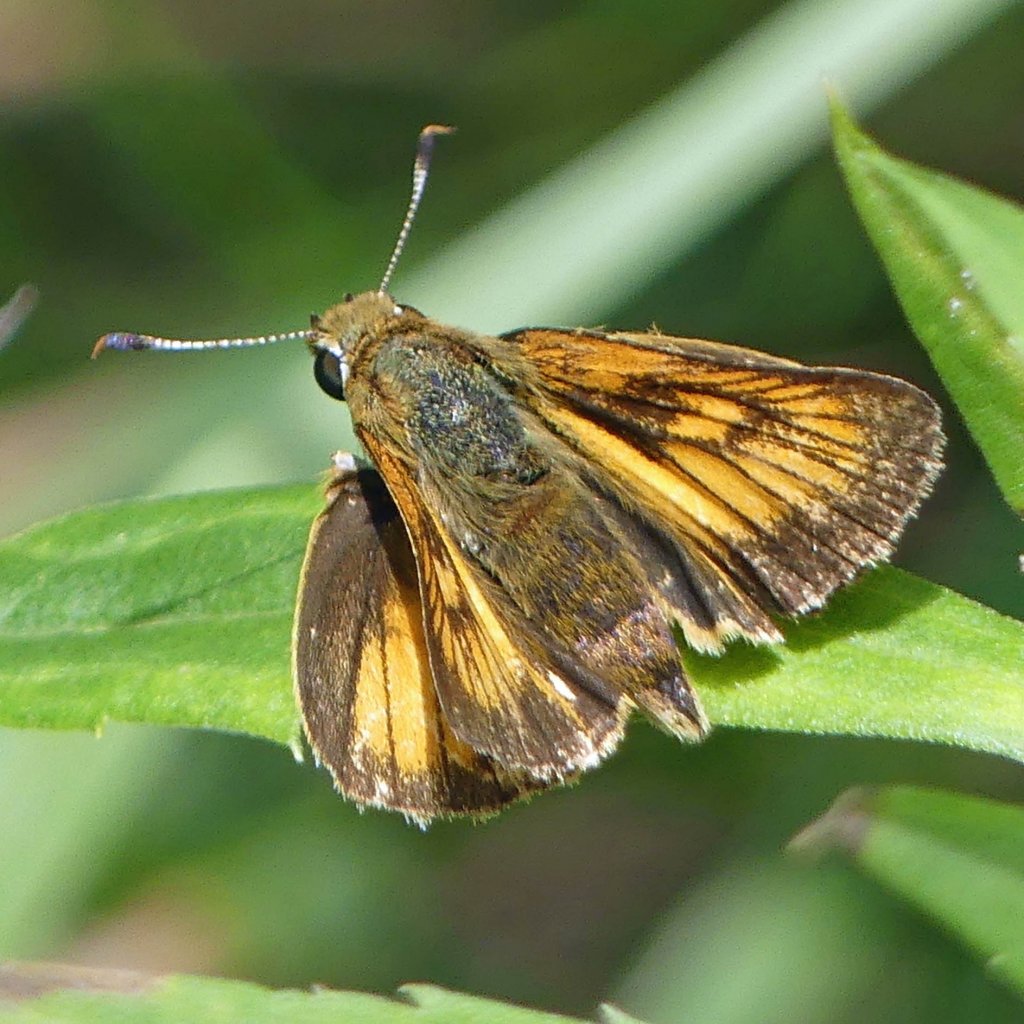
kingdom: Animalia
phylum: Arthropoda
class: Insecta
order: Lepidoptera
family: Hesperiidae
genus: Atrytone
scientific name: Atrytone delaware
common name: Delaware Skipper
